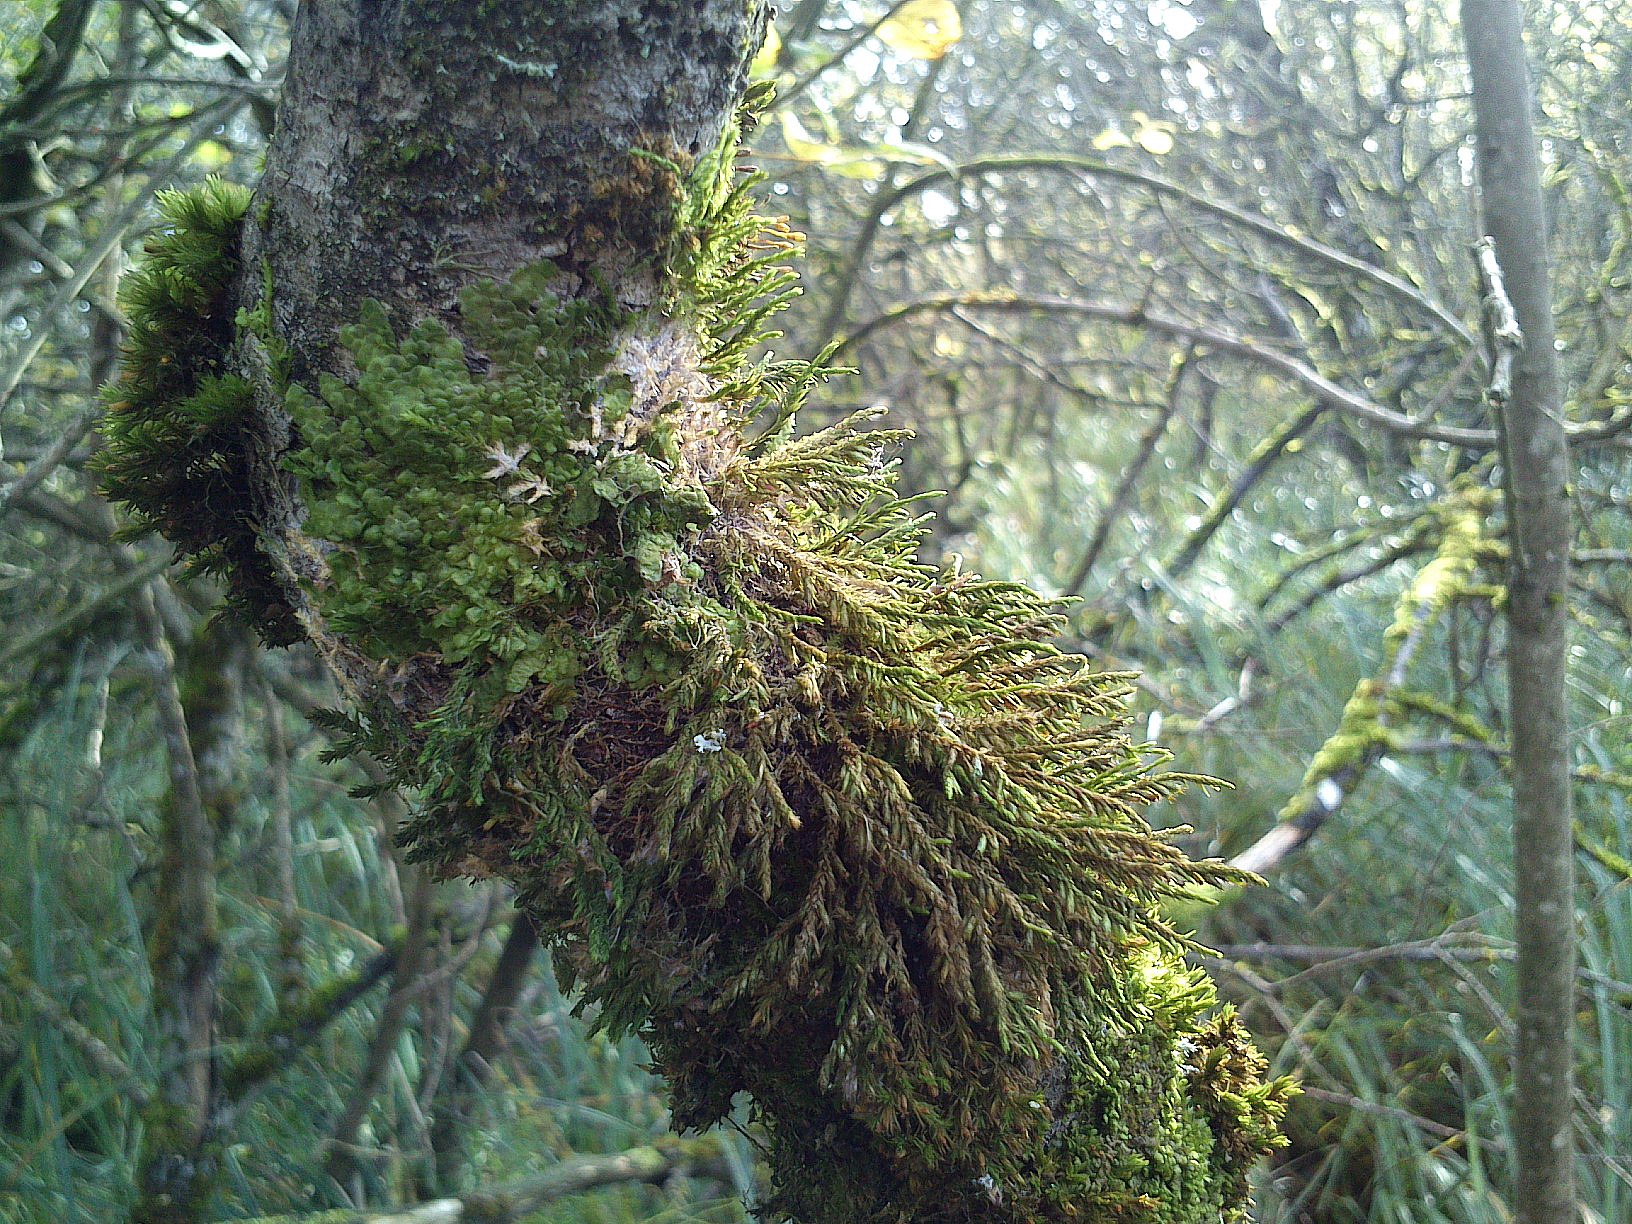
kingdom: Plantae
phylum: Bryophyta
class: Bryopsida
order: Hypnales
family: Cryphaeaceae
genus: Cryphaea
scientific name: Cryphaea heteromalla
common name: Bark-dækmos
